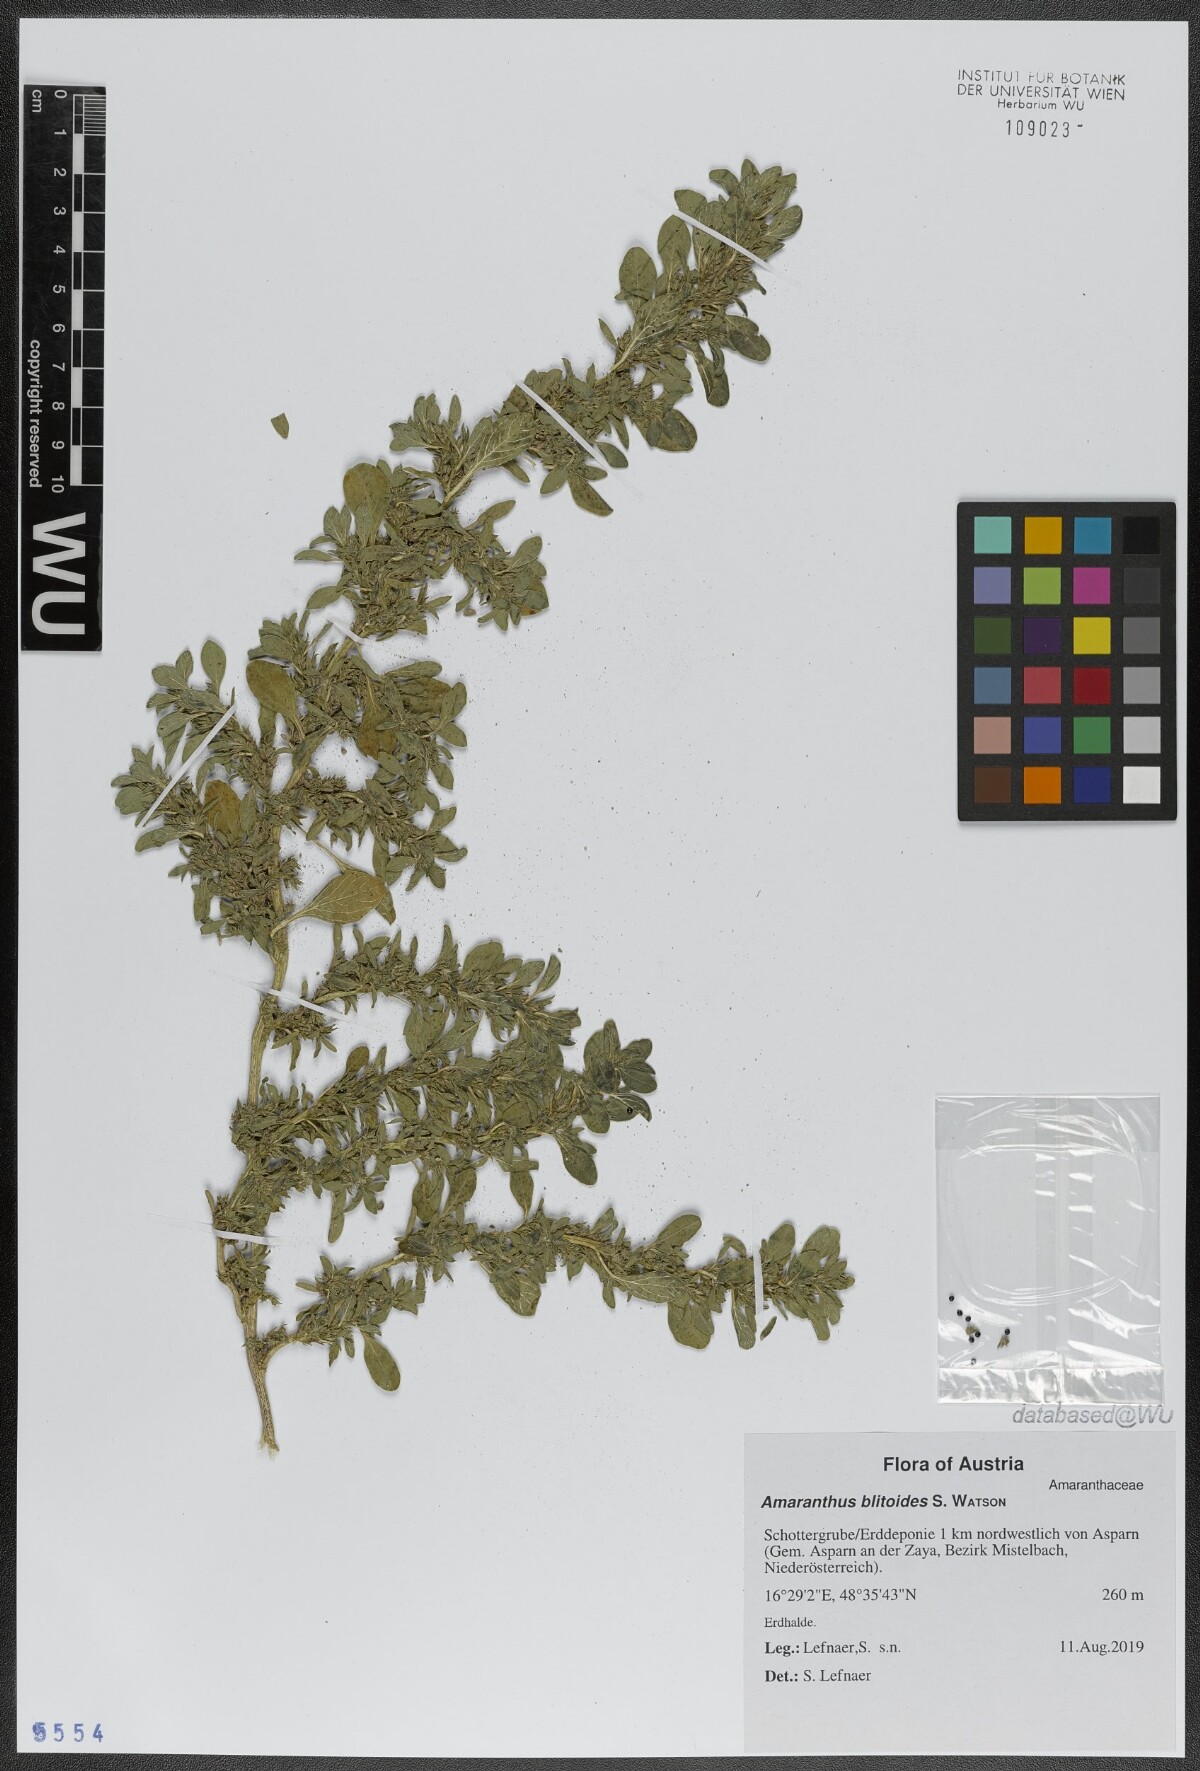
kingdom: Plantae
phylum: Tracheophyta
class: Magnoliopsida
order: Caryophyllales
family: Amaranthaceae
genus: Amaranthus
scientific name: Amaranthus blitoides
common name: Prostrate pigweed
